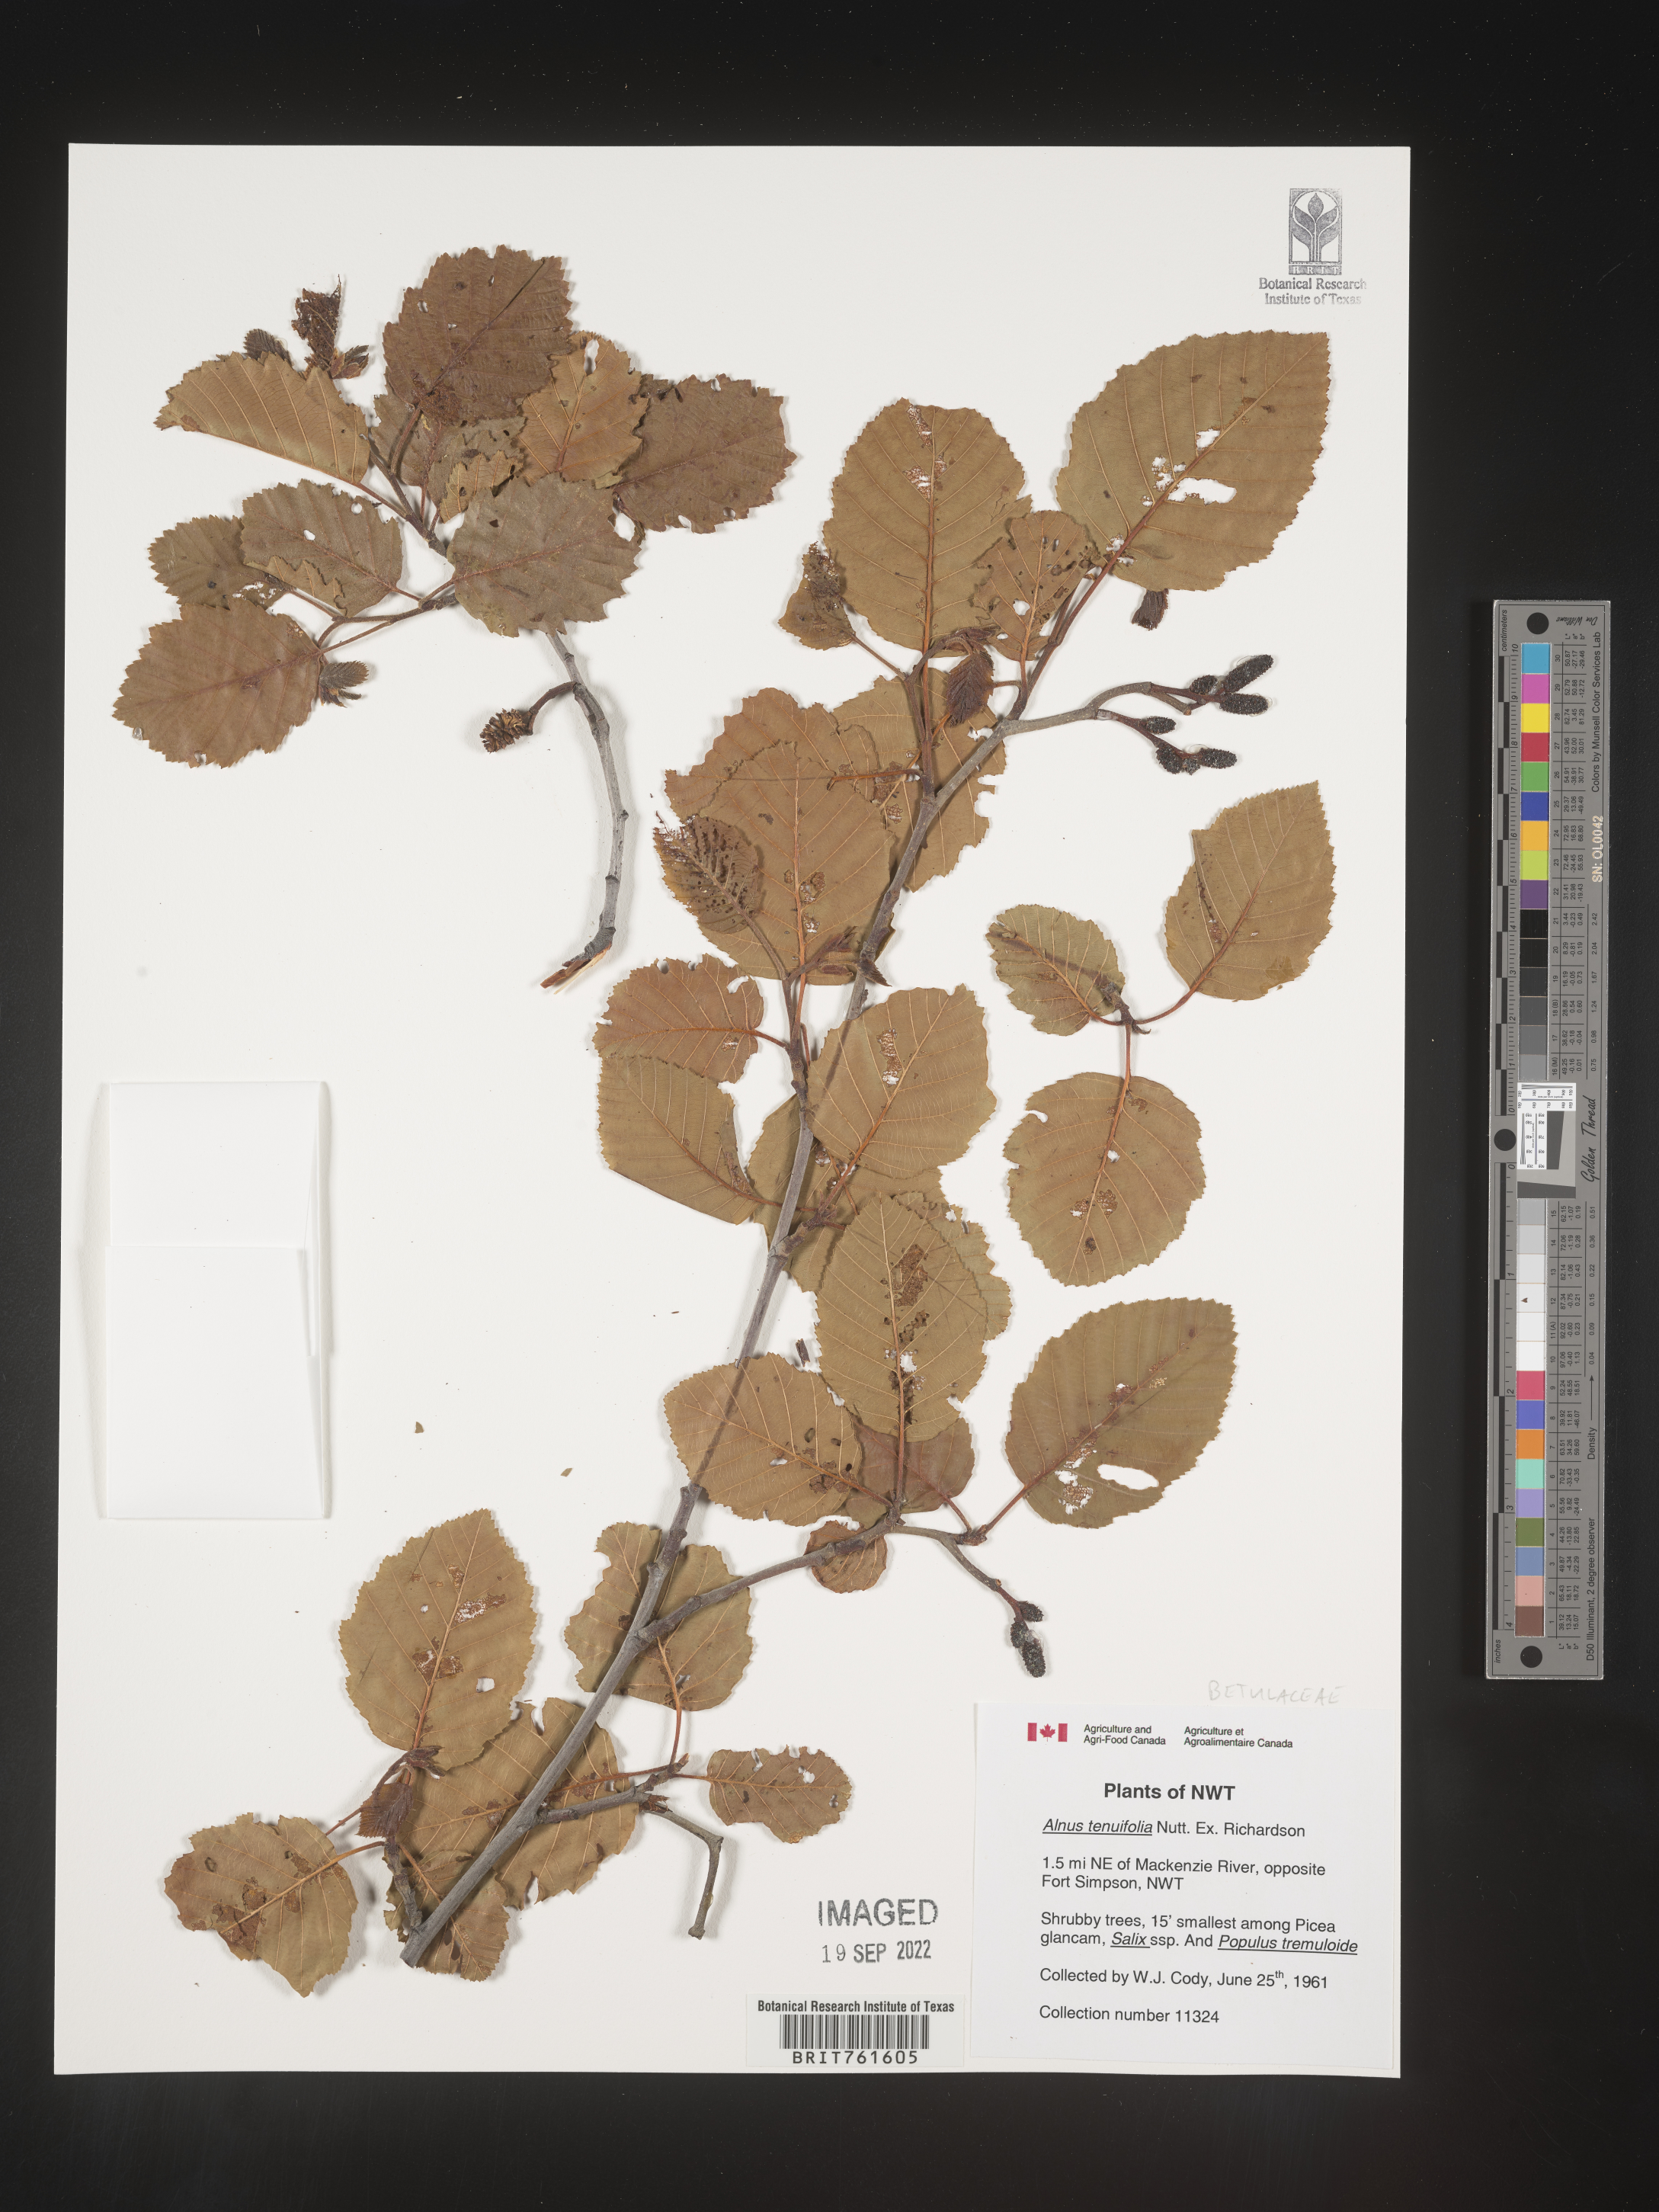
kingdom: Plantae
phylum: Tracheophyta
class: Magnoliopsida
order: Fagales
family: Betulaceae
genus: Alnus
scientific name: Alnus incana
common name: Grey alder
